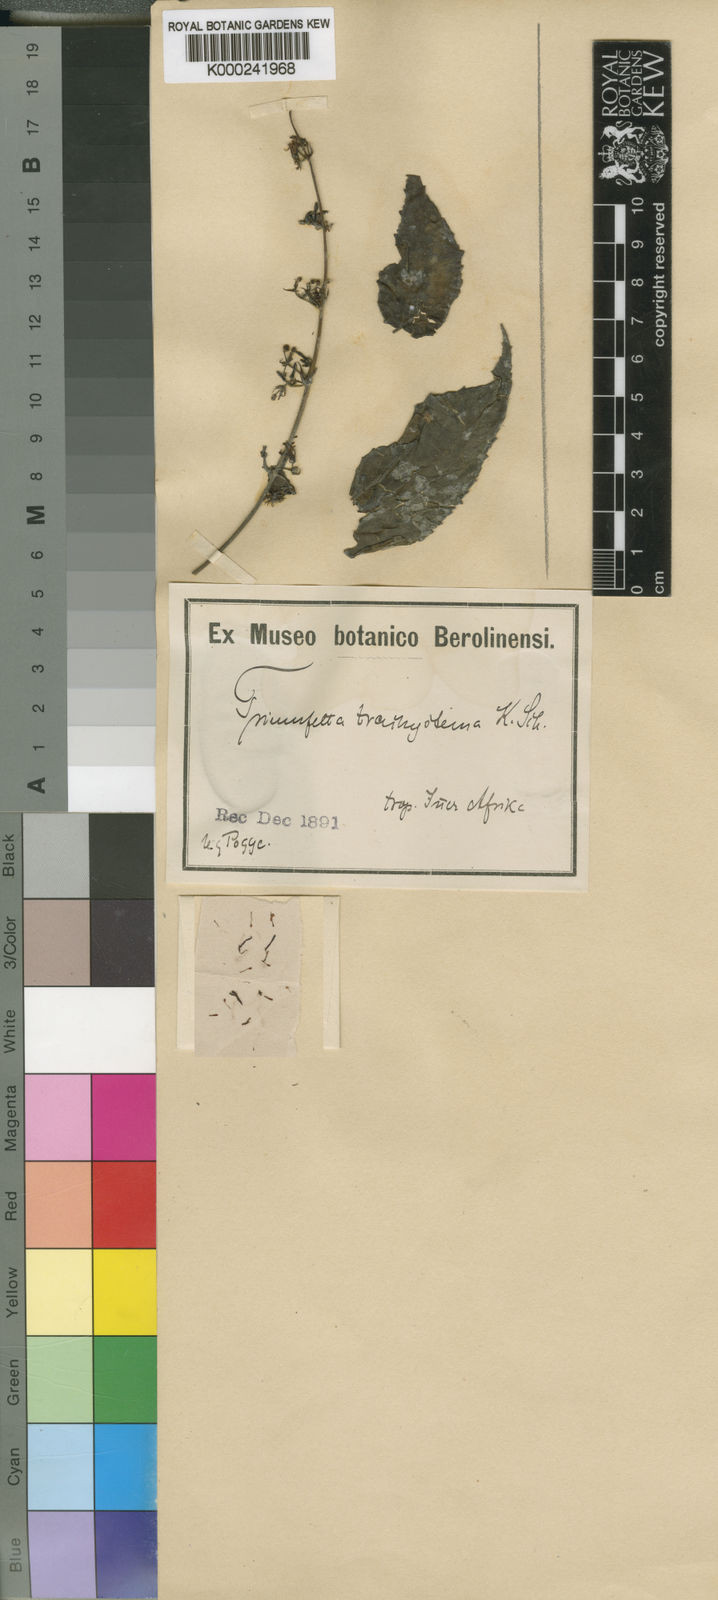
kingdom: Plantae
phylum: Tracheophyta
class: Magnoliopsida
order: Malvales
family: Malvaceae
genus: Triumfetta
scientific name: Triumfetta trachystema
